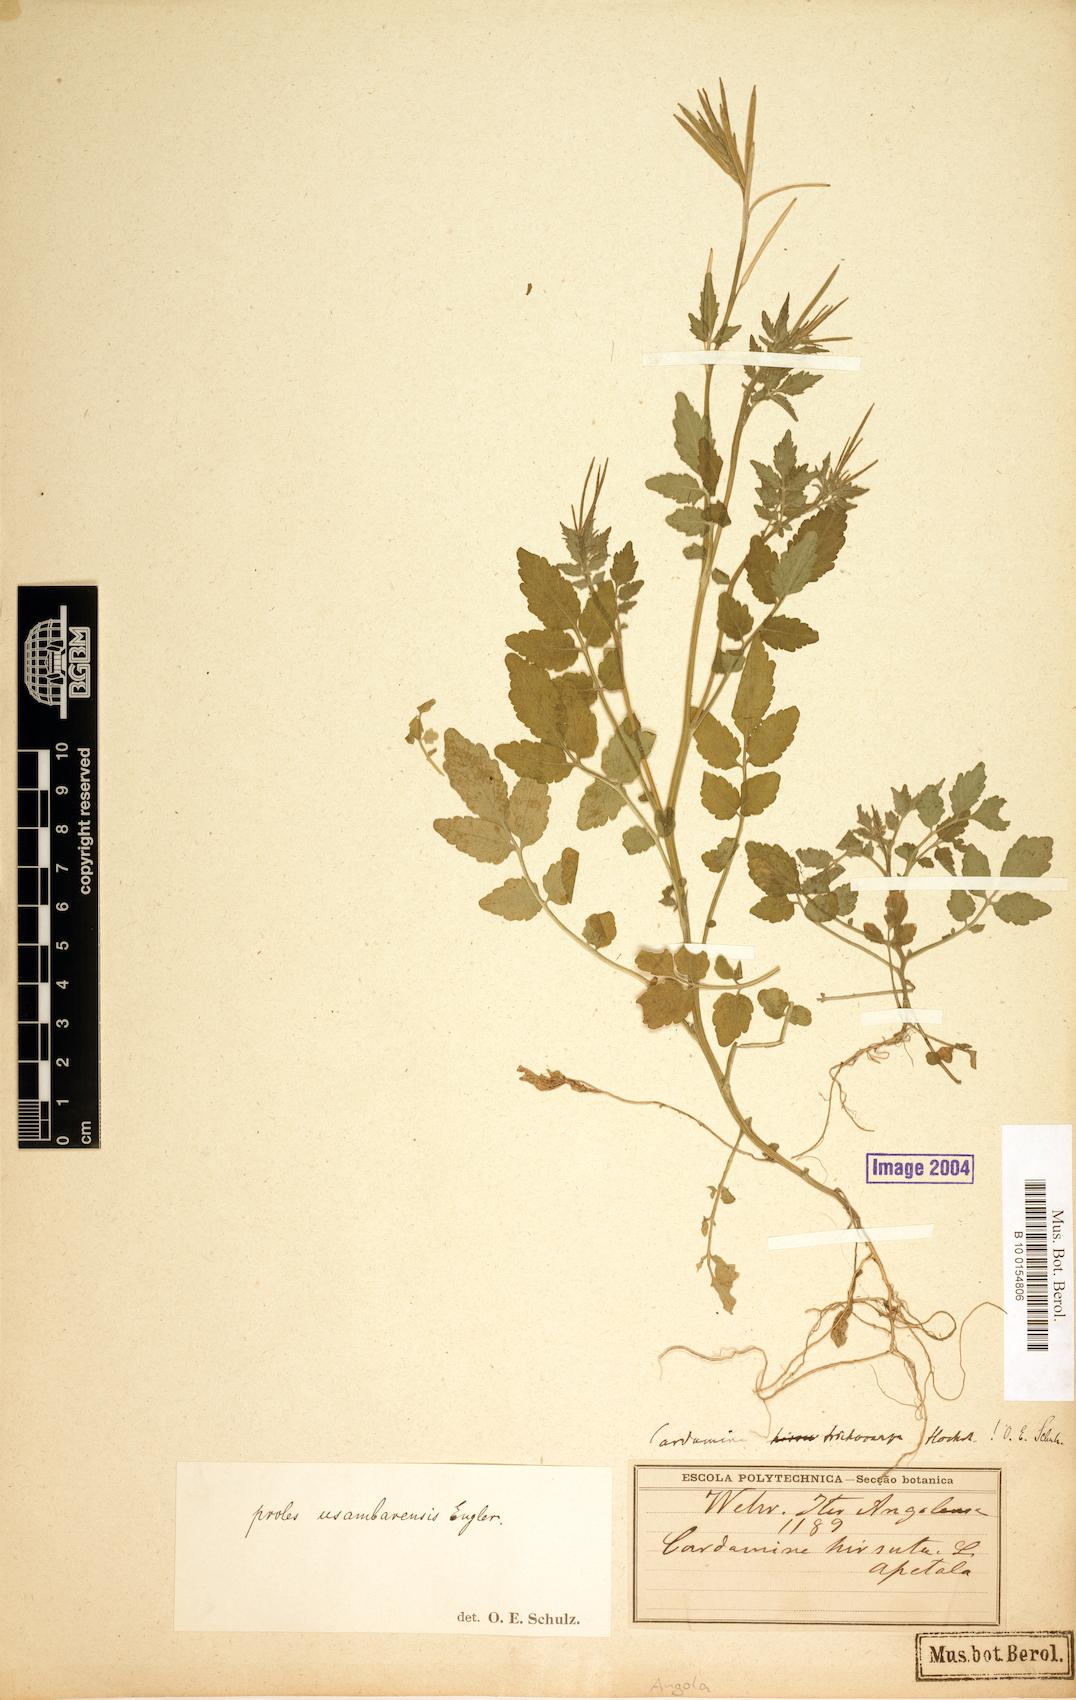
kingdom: Plantae
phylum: Tracheophyta
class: Magnoliopsida
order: Brassicales
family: Brassicaceae
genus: Cardamine
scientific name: Cardamine trichocarpa
